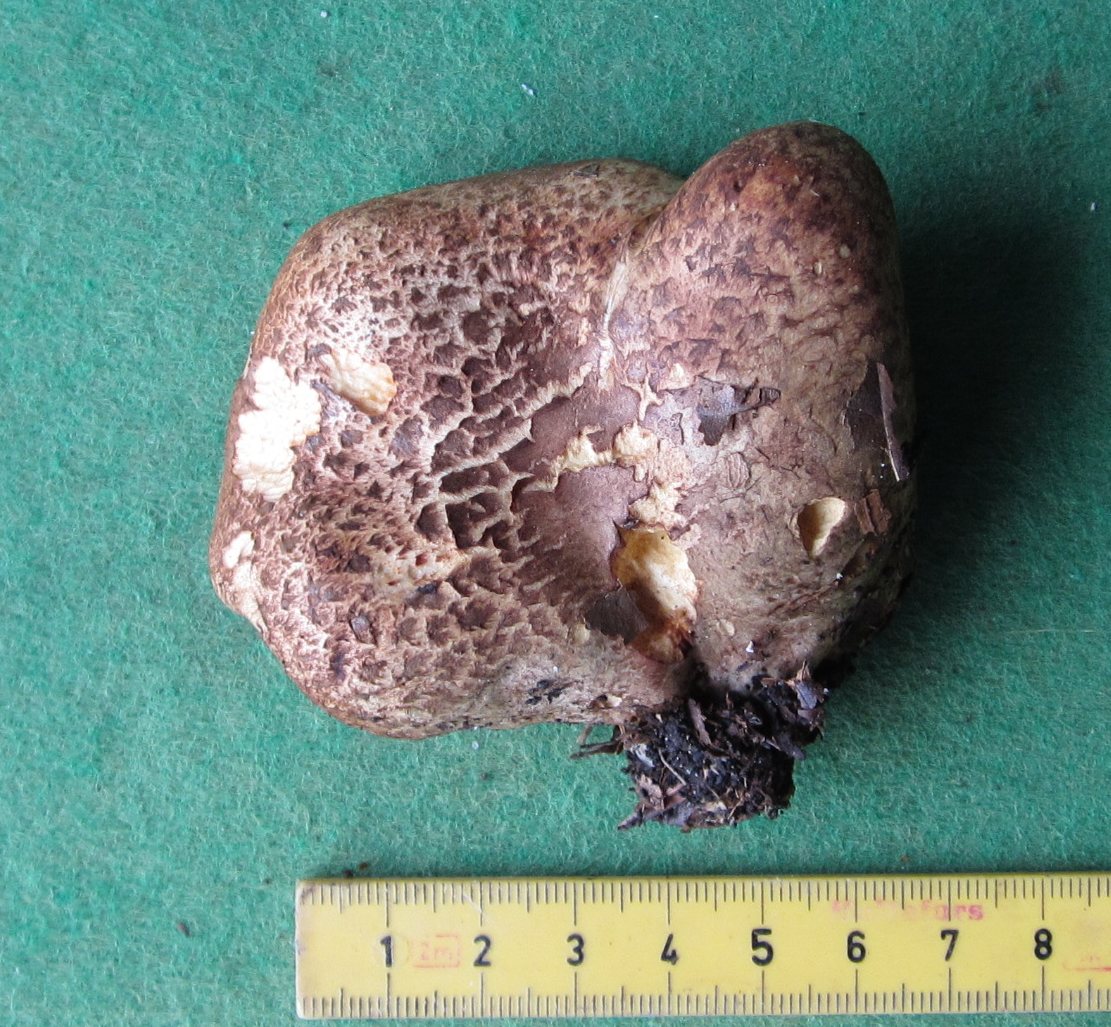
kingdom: Fungi
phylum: Basidiomycota
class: Agaricomycetes
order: Boletales
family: Paxillaceae
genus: Paxillus
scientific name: Paxillus rubicundulus
